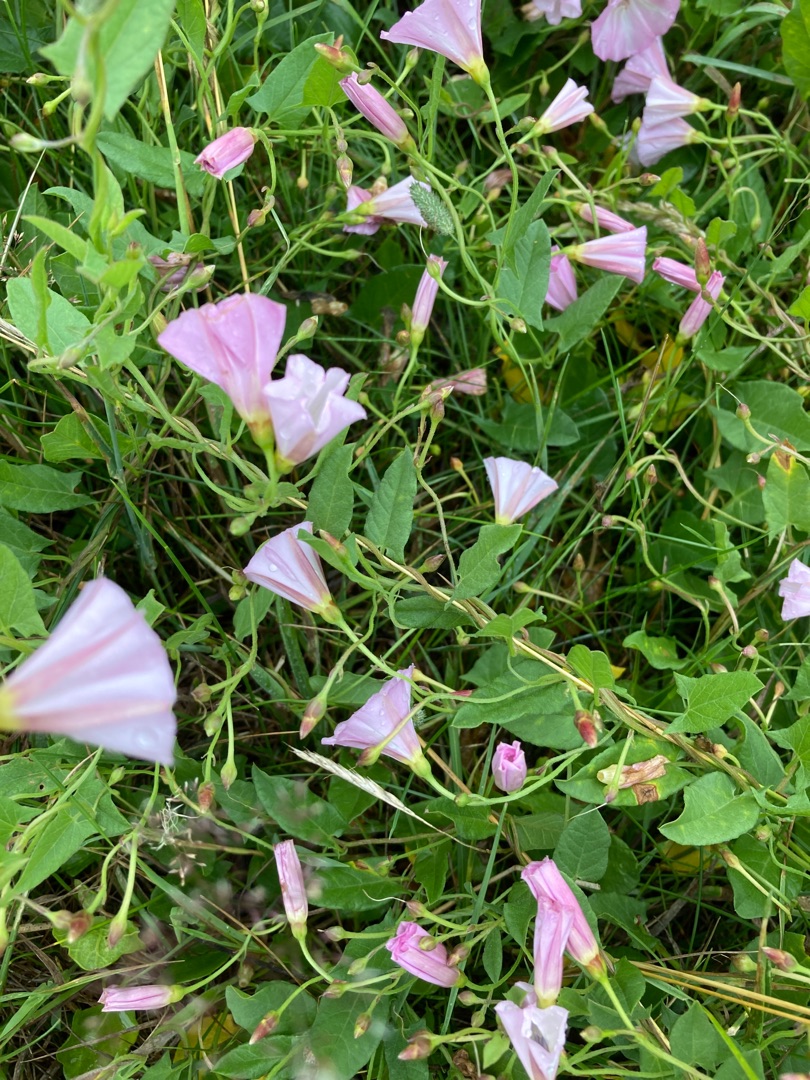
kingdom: Plantae
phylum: Tracheophyta
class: Magnoliopsida
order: Solanales
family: Convolvulaceae
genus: Convolvulus
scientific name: Convolvulus arvensis
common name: Ager-snerle
